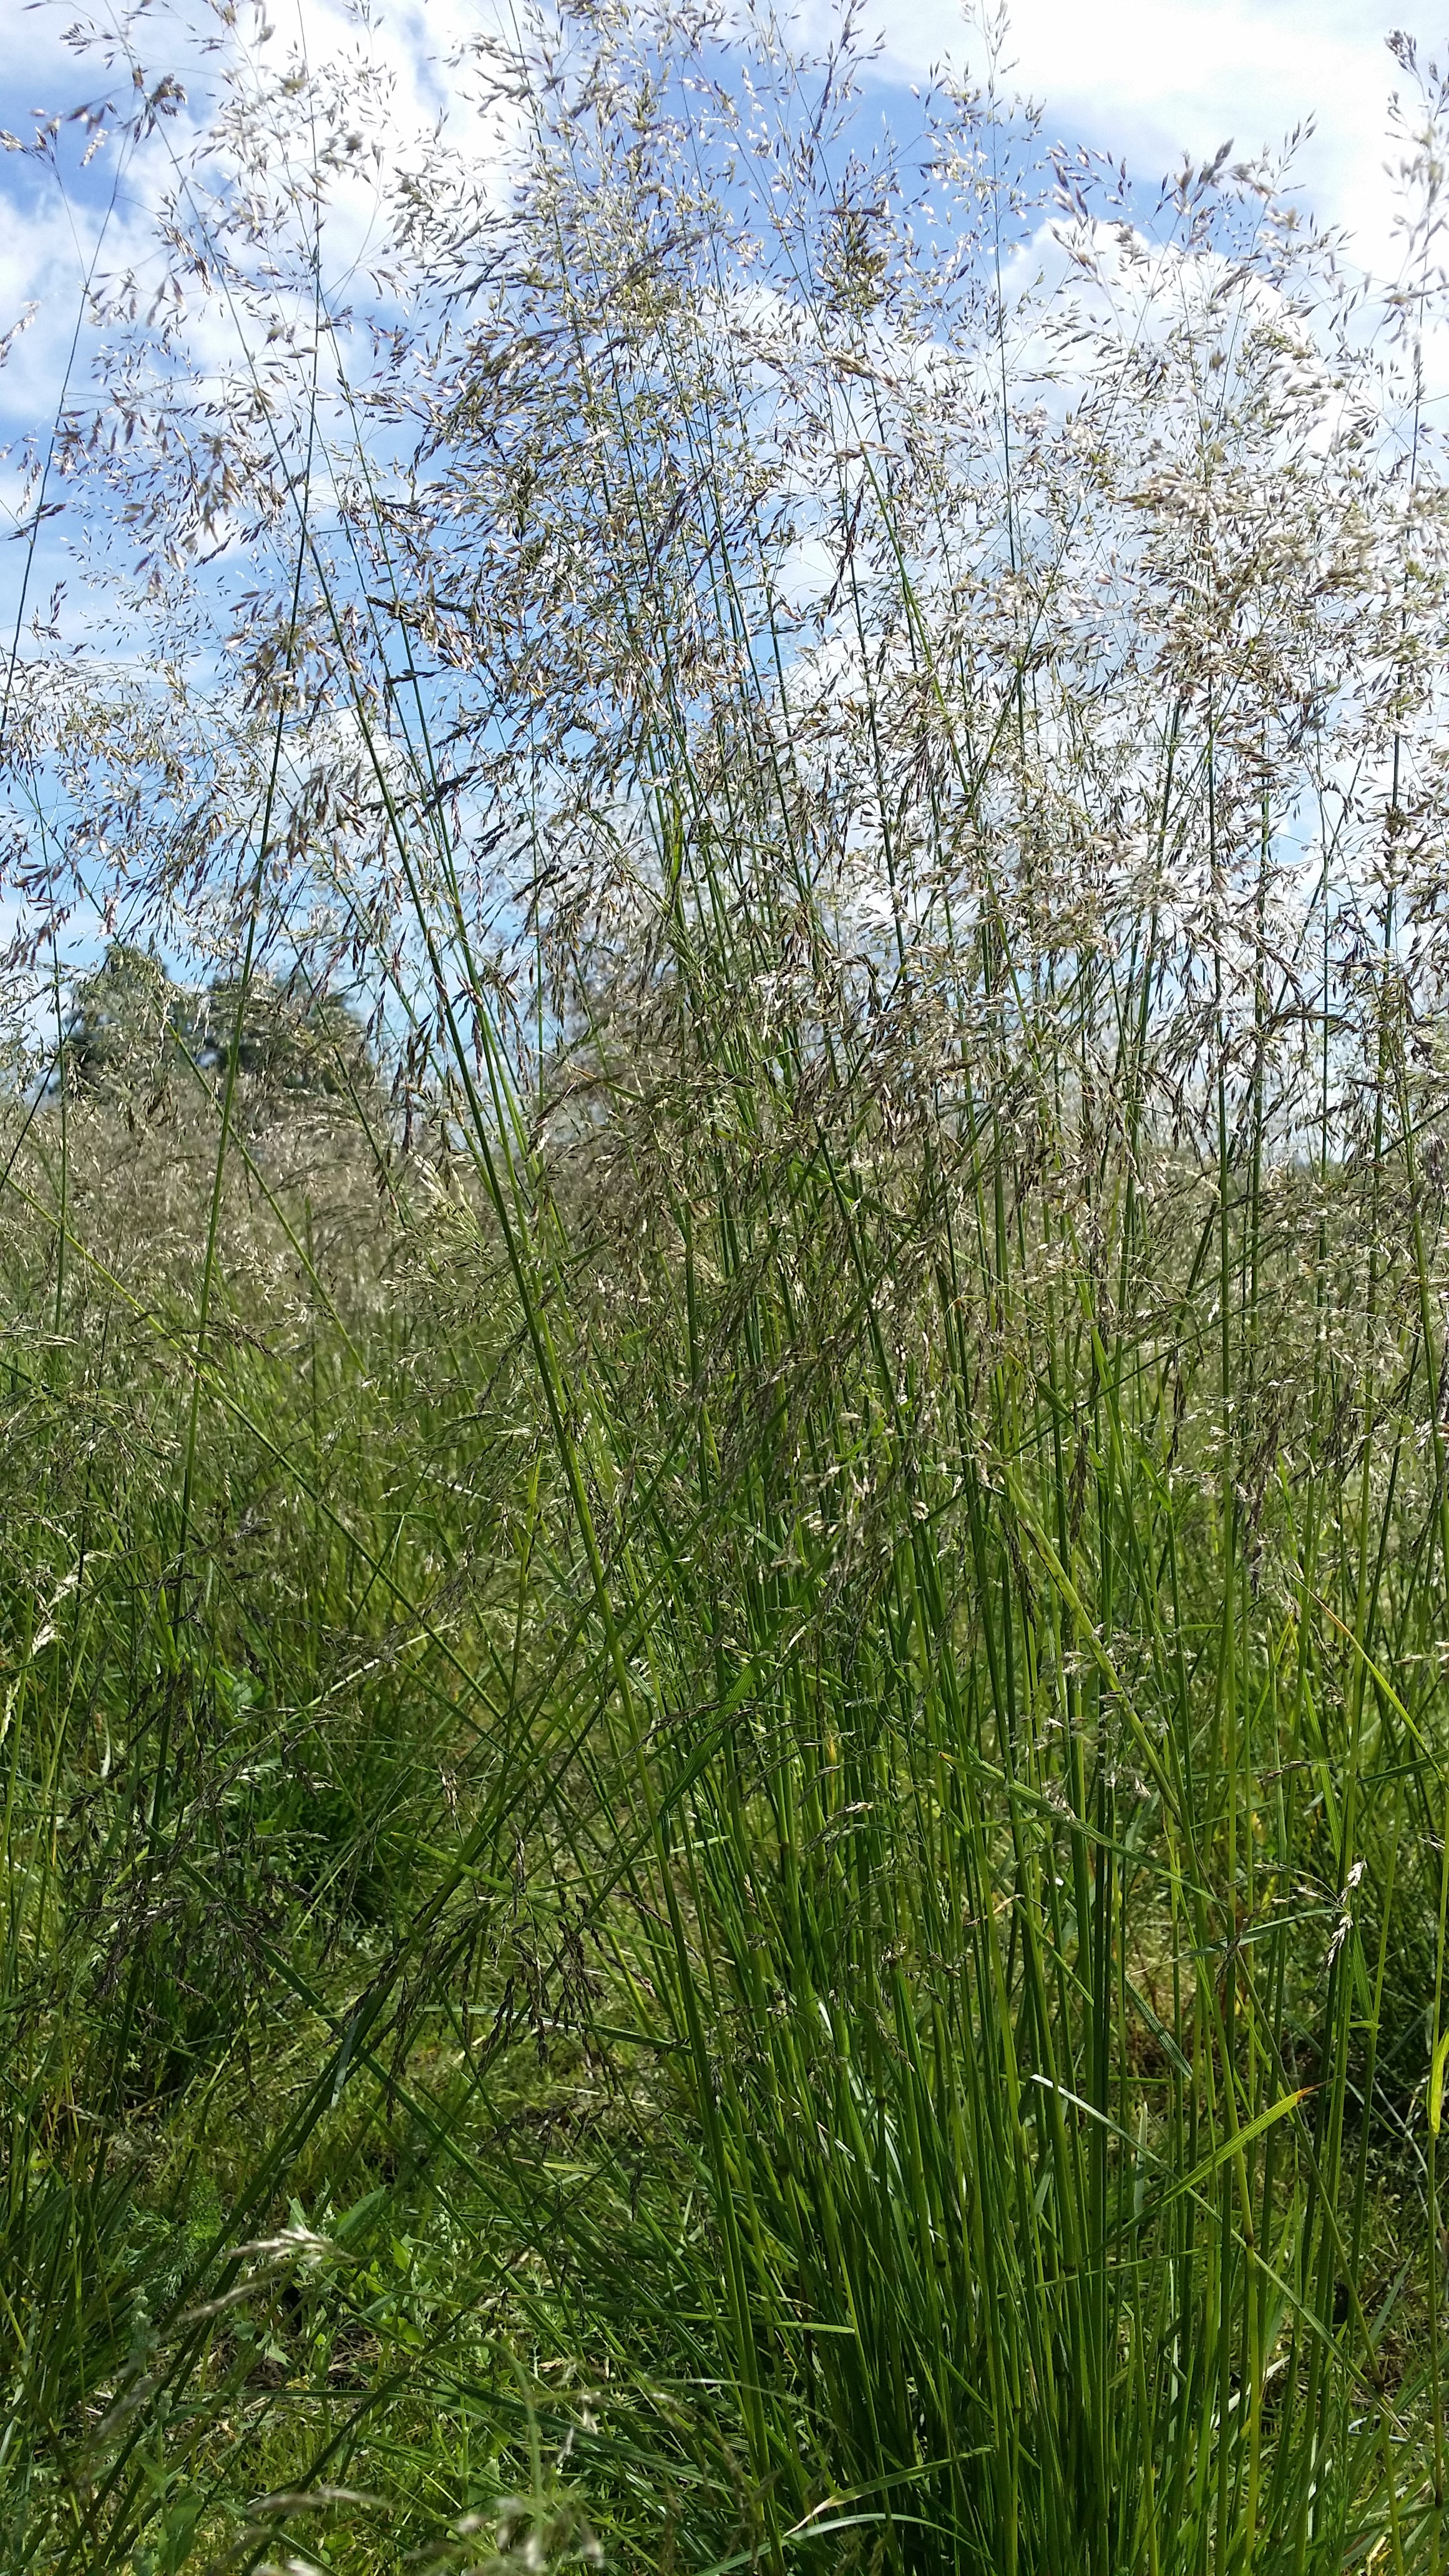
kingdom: Plantae
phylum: Tracheophyta
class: Liliopsida
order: Poales
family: Poaceae
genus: Deschampsia
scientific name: Deschampsia cespitosa
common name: Tufted hair-grass
